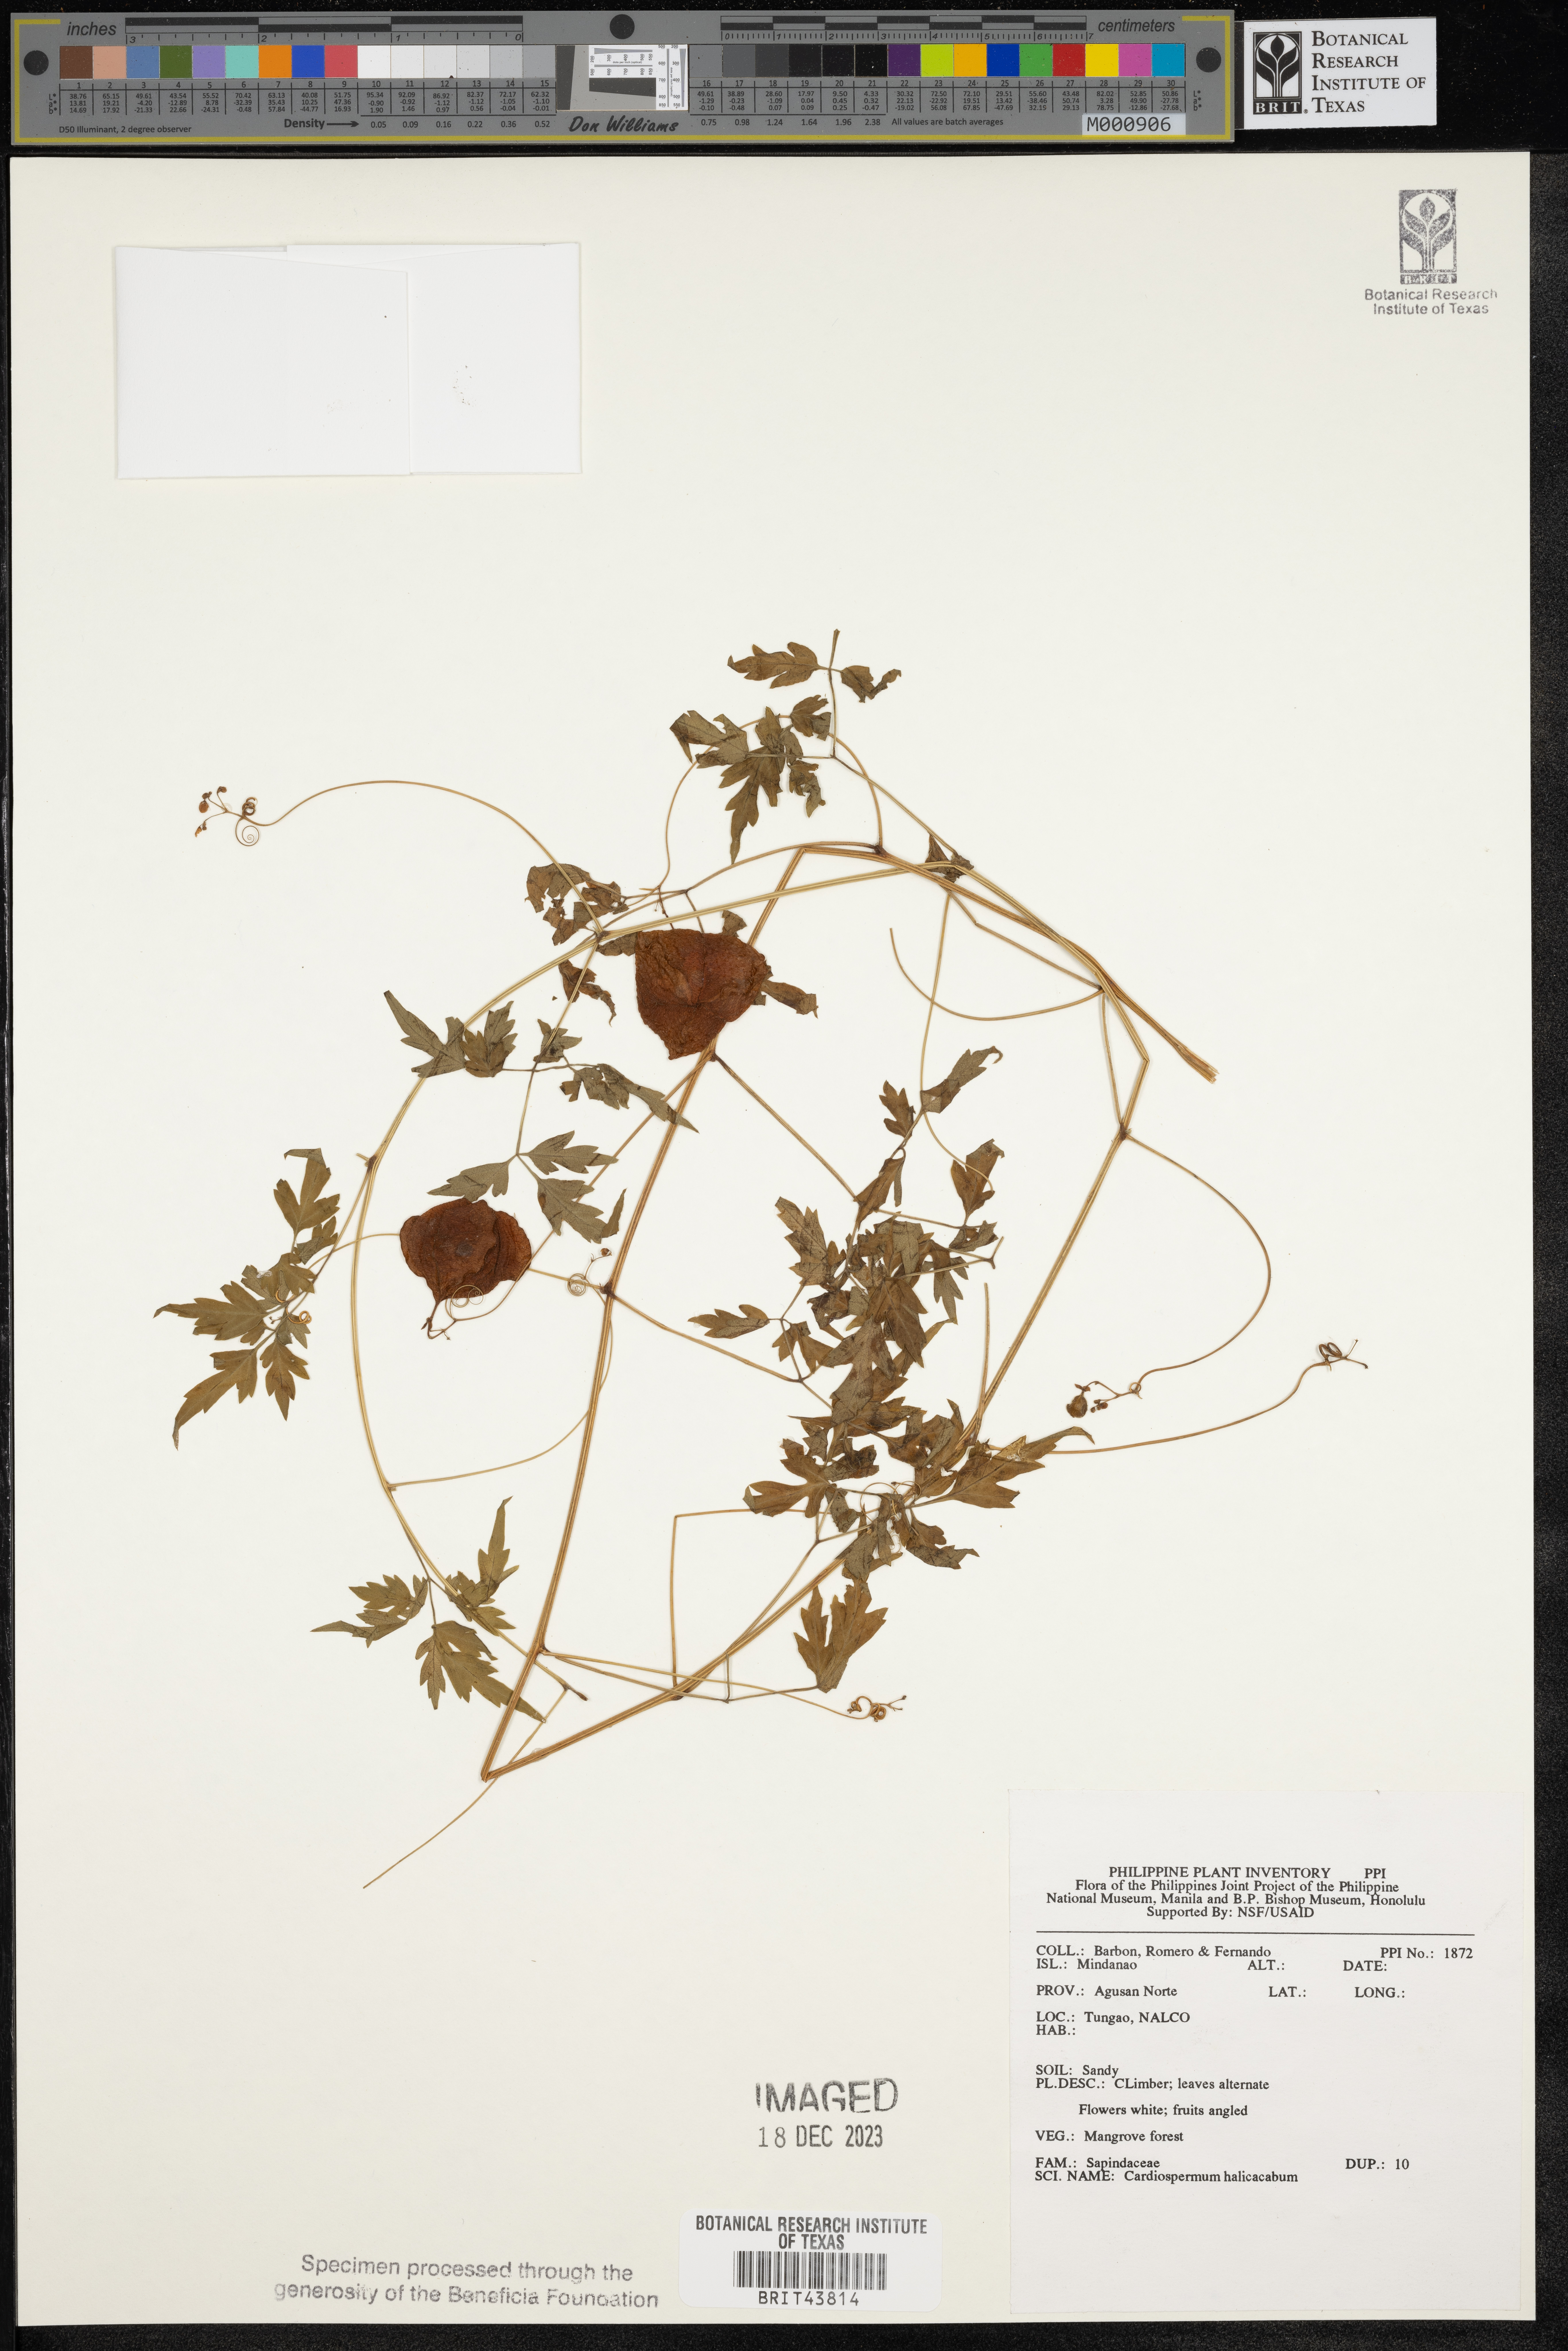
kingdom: Plantae
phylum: Tracheophyta
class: Magnoliopsida
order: Sapindales
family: Sapindaceae
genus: Cardiospermum
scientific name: Cardiospermum halicacabum
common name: Balloon vine
